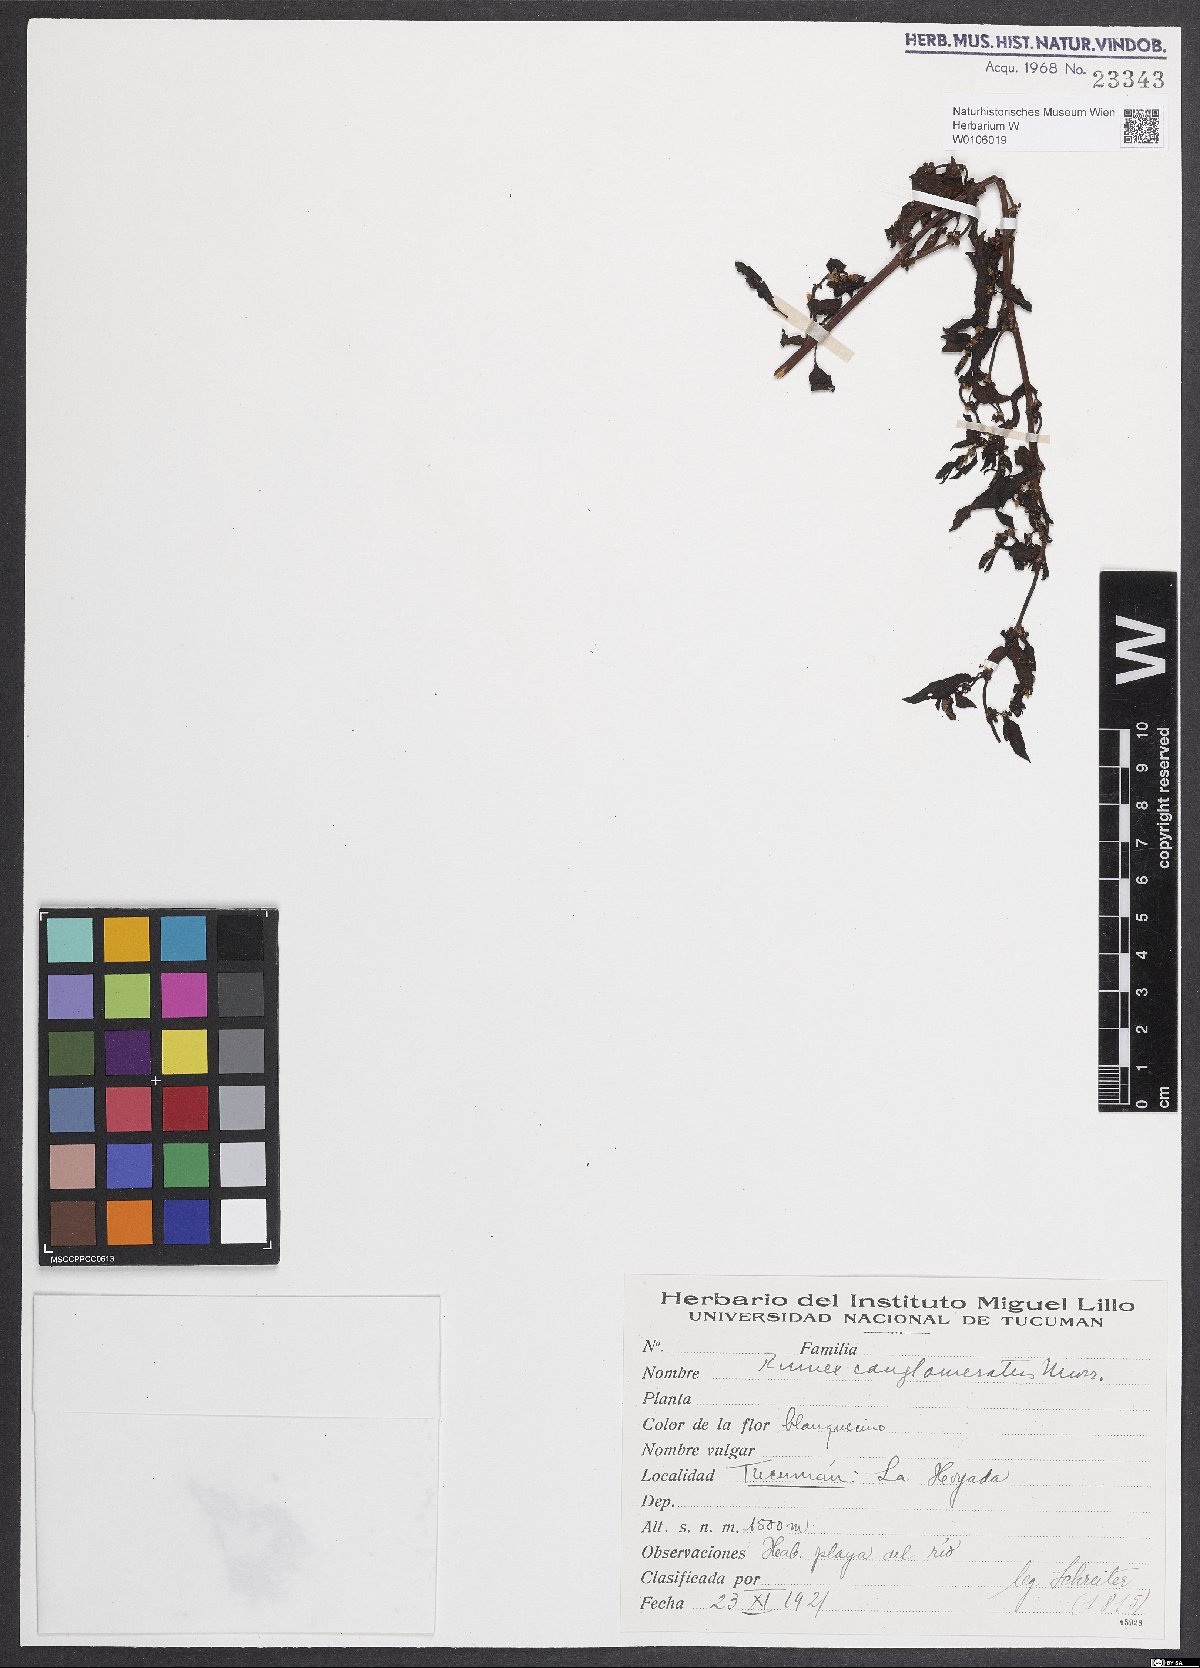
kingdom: Plantae
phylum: Tracheophyta
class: Magnoliopsida
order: Caryophyllales
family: Polygonaceae
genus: Rumex
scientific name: Rumex conglomeratus
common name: Clustered dock
